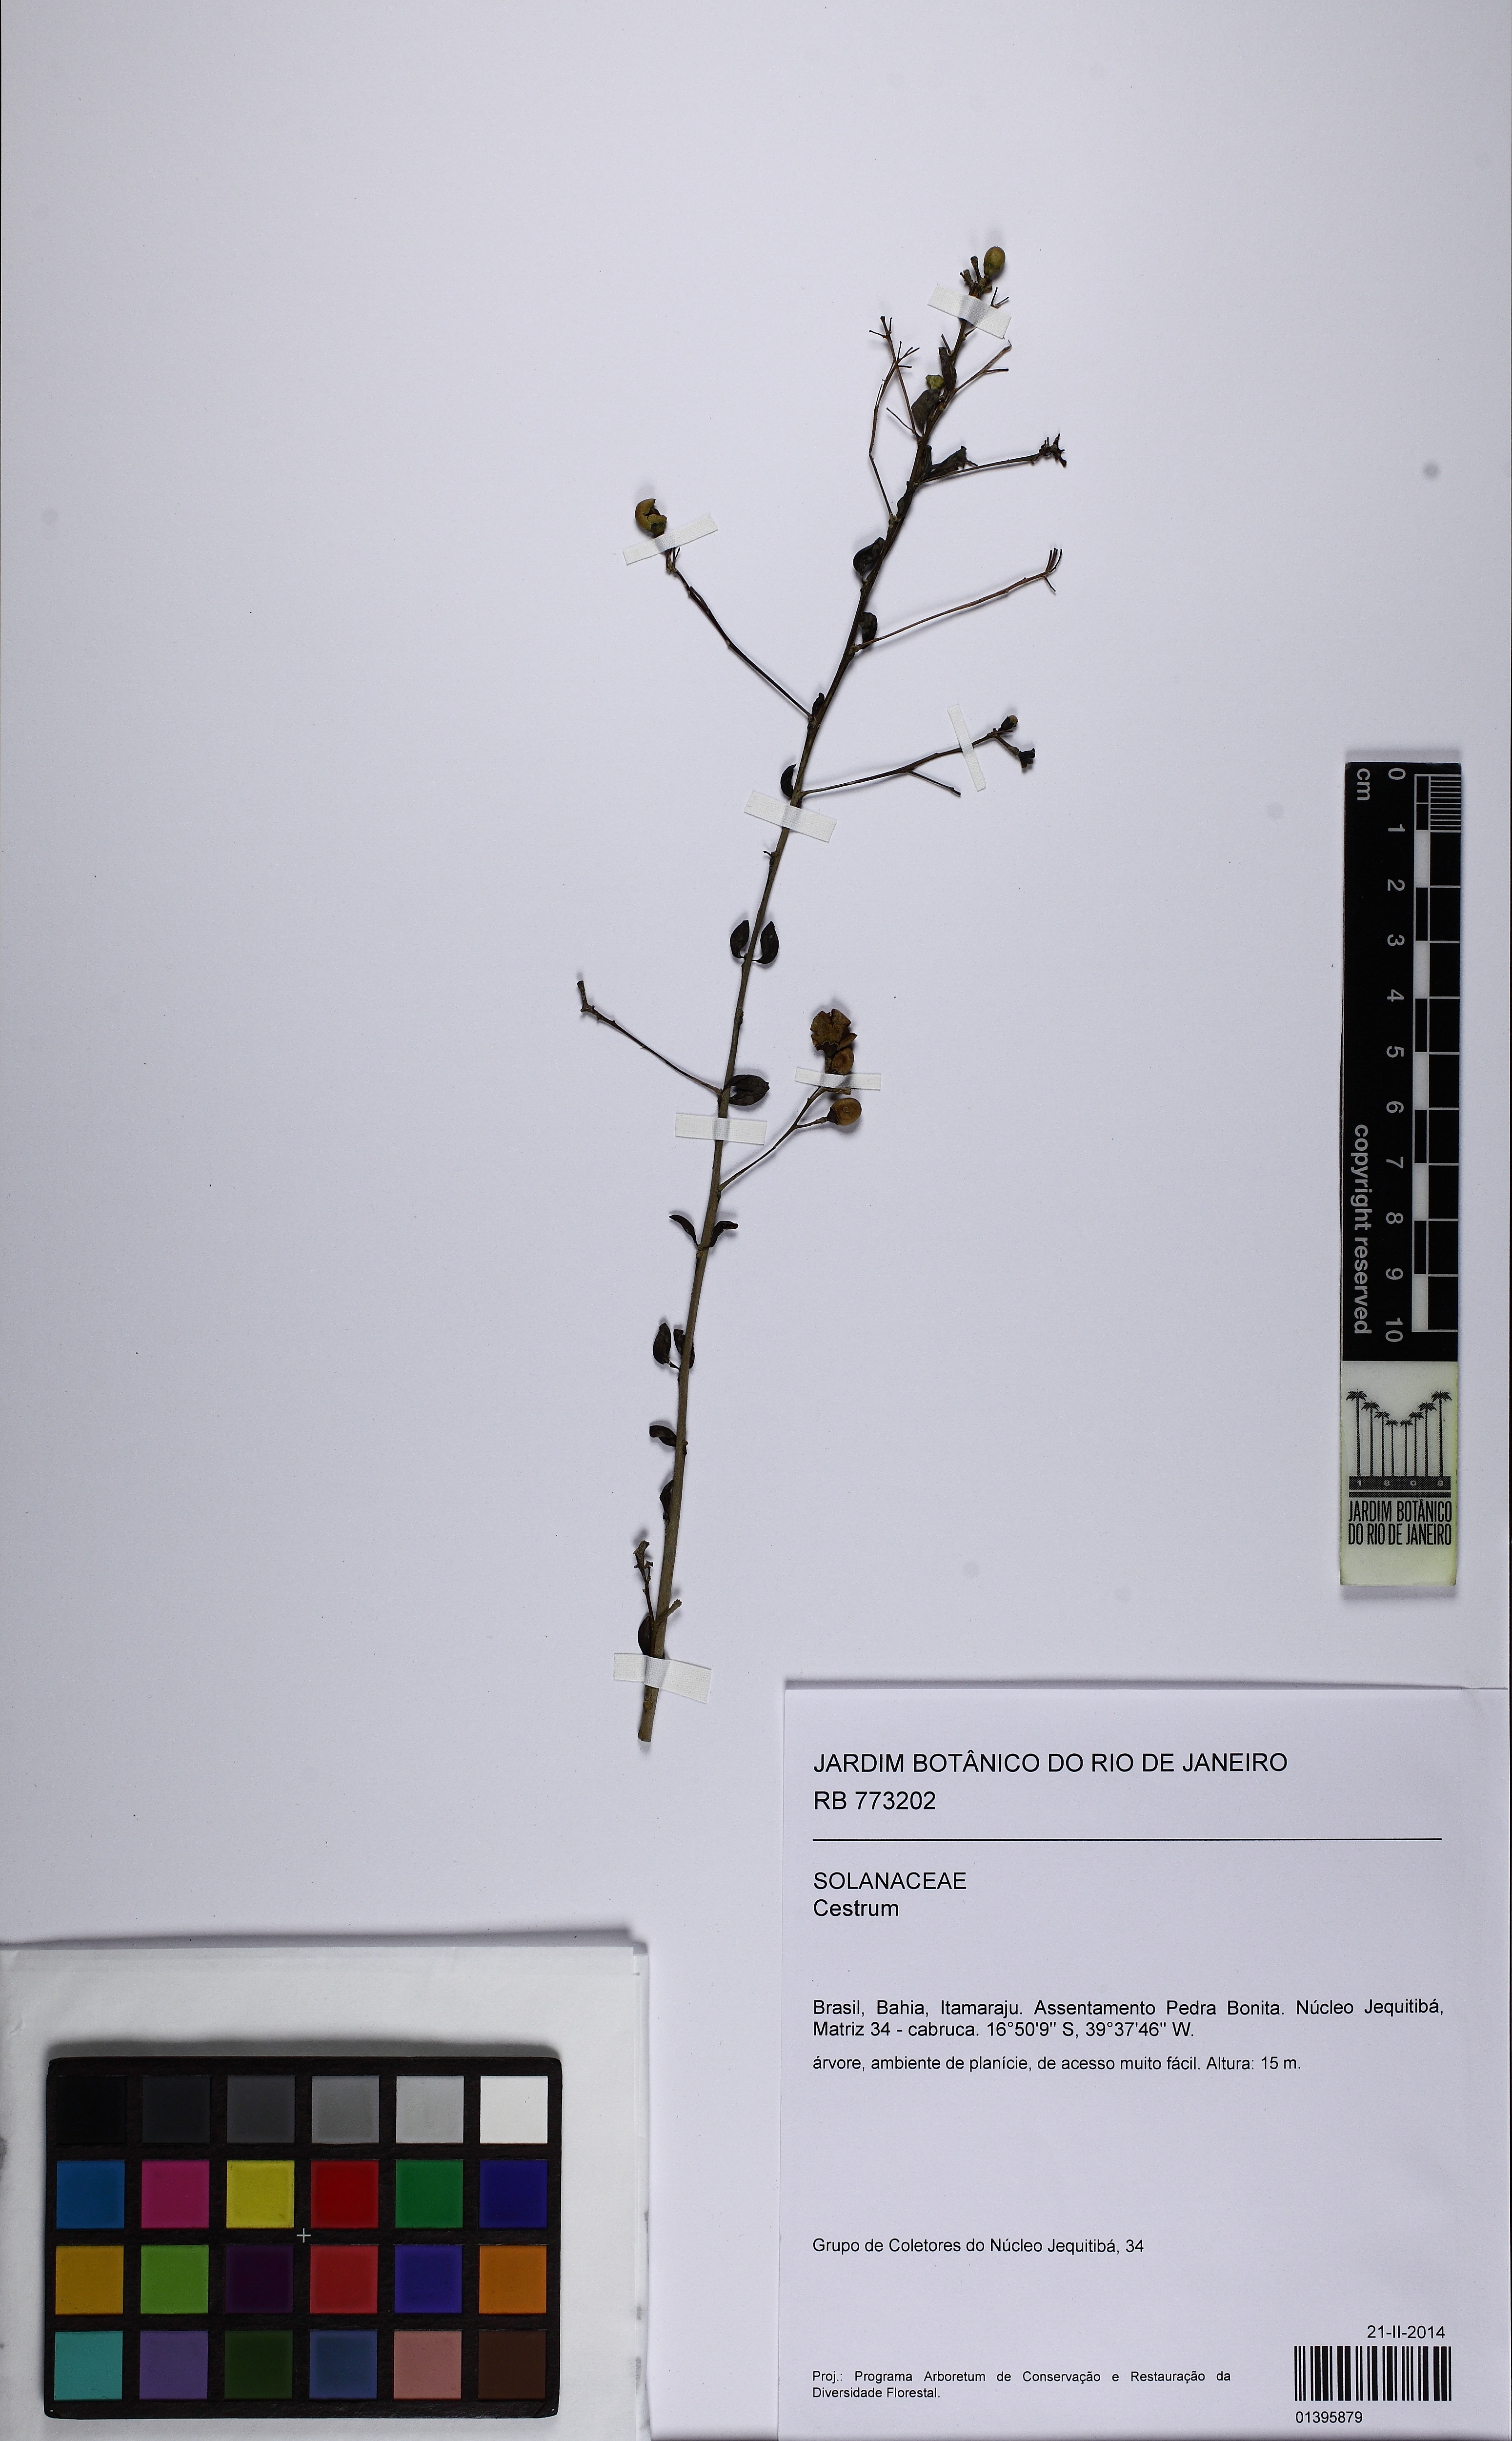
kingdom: Plantae
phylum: Tracheophyta
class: Magnoliopsida
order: Solanales
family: Solanaceae
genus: Cestrum
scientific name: Cestrum
